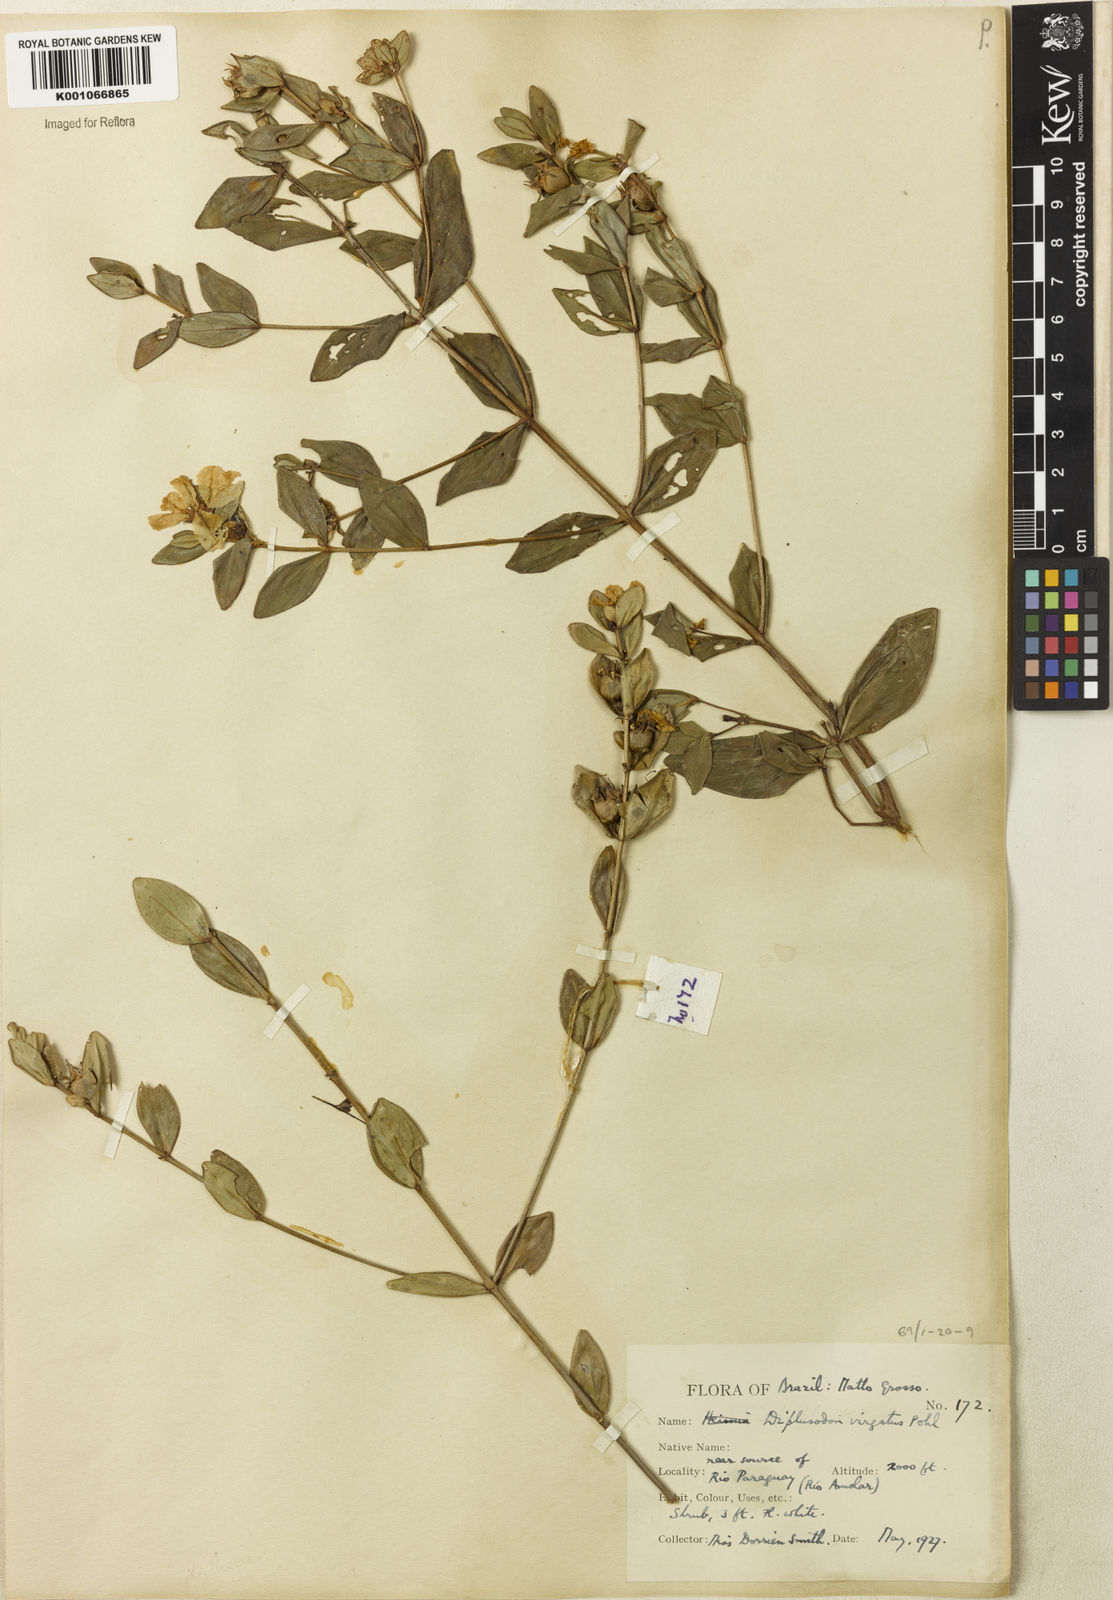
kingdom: Plantae
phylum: Tracheophyta
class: Magnoliopsida
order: Myrtales
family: Lythraceae
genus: Diplusodon
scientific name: Diplusodon virgatus
